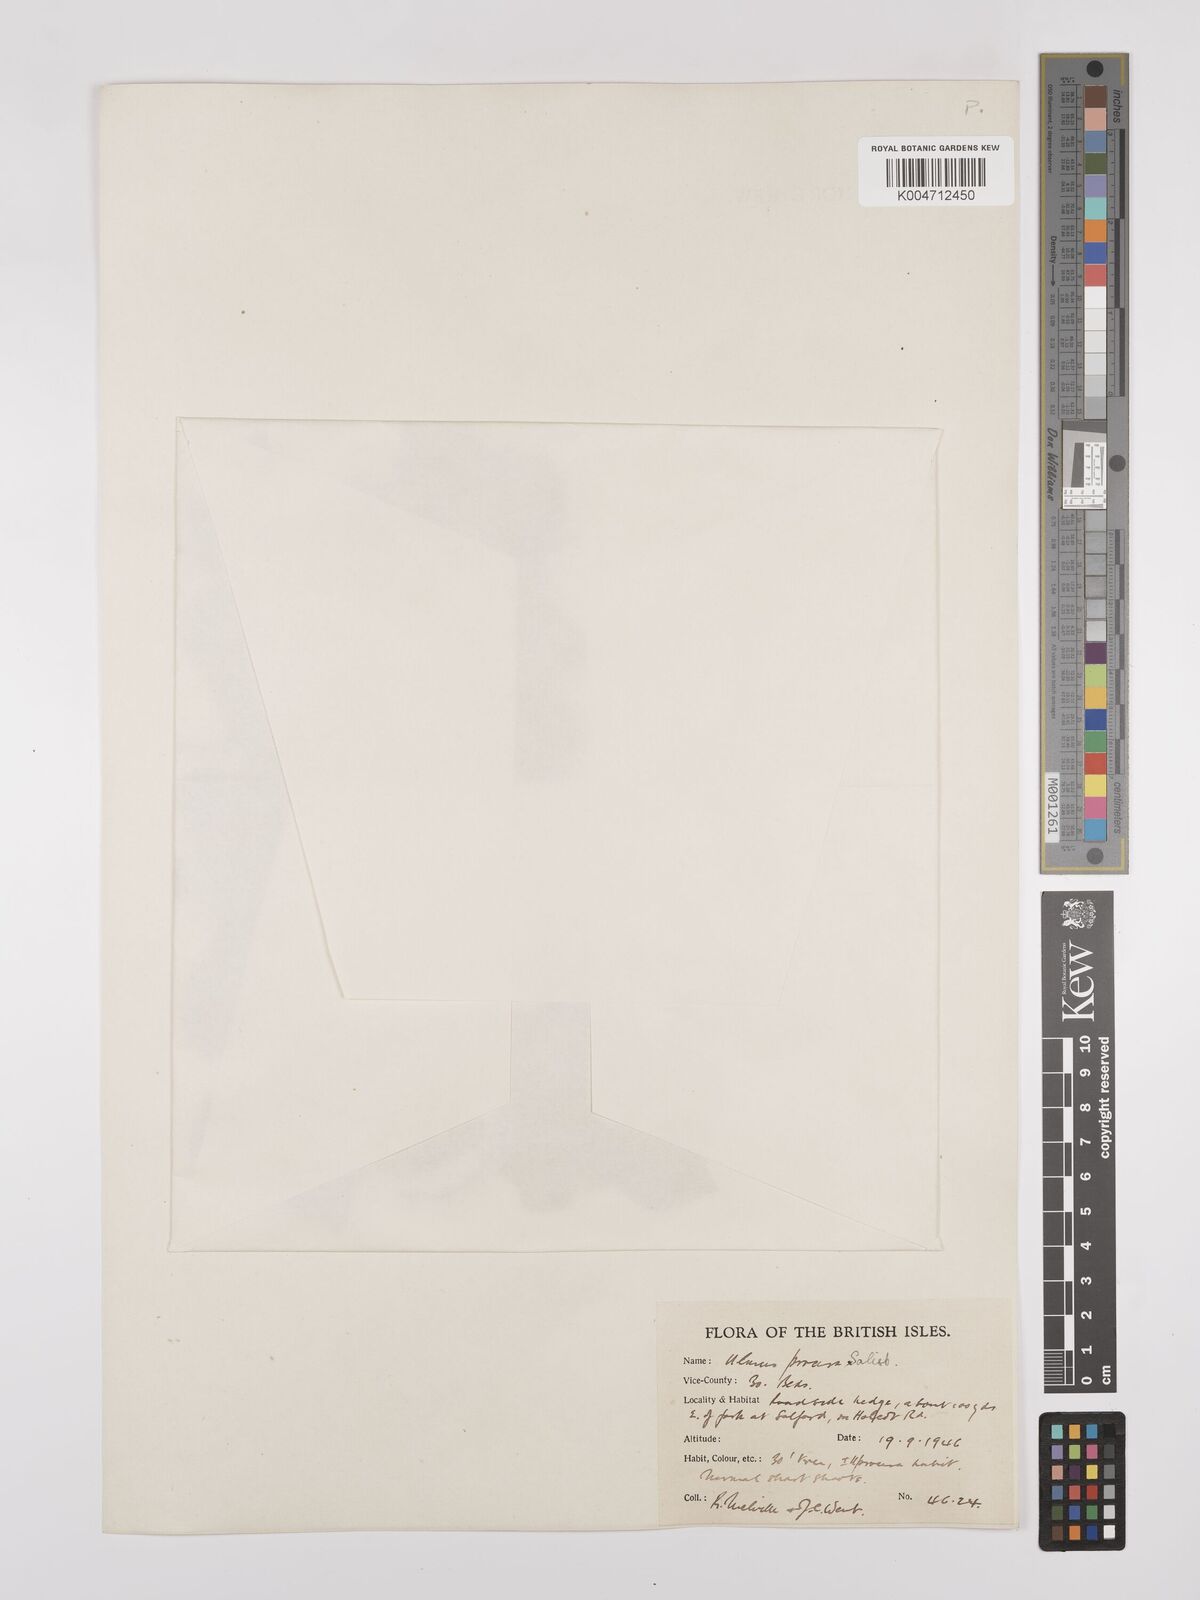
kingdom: Plantae
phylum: Tracheophyta
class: Magnoliopsida
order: Rosales
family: Ulmaceae
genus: Ulmus
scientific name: Ulmus minor
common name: Small-leaved elm
